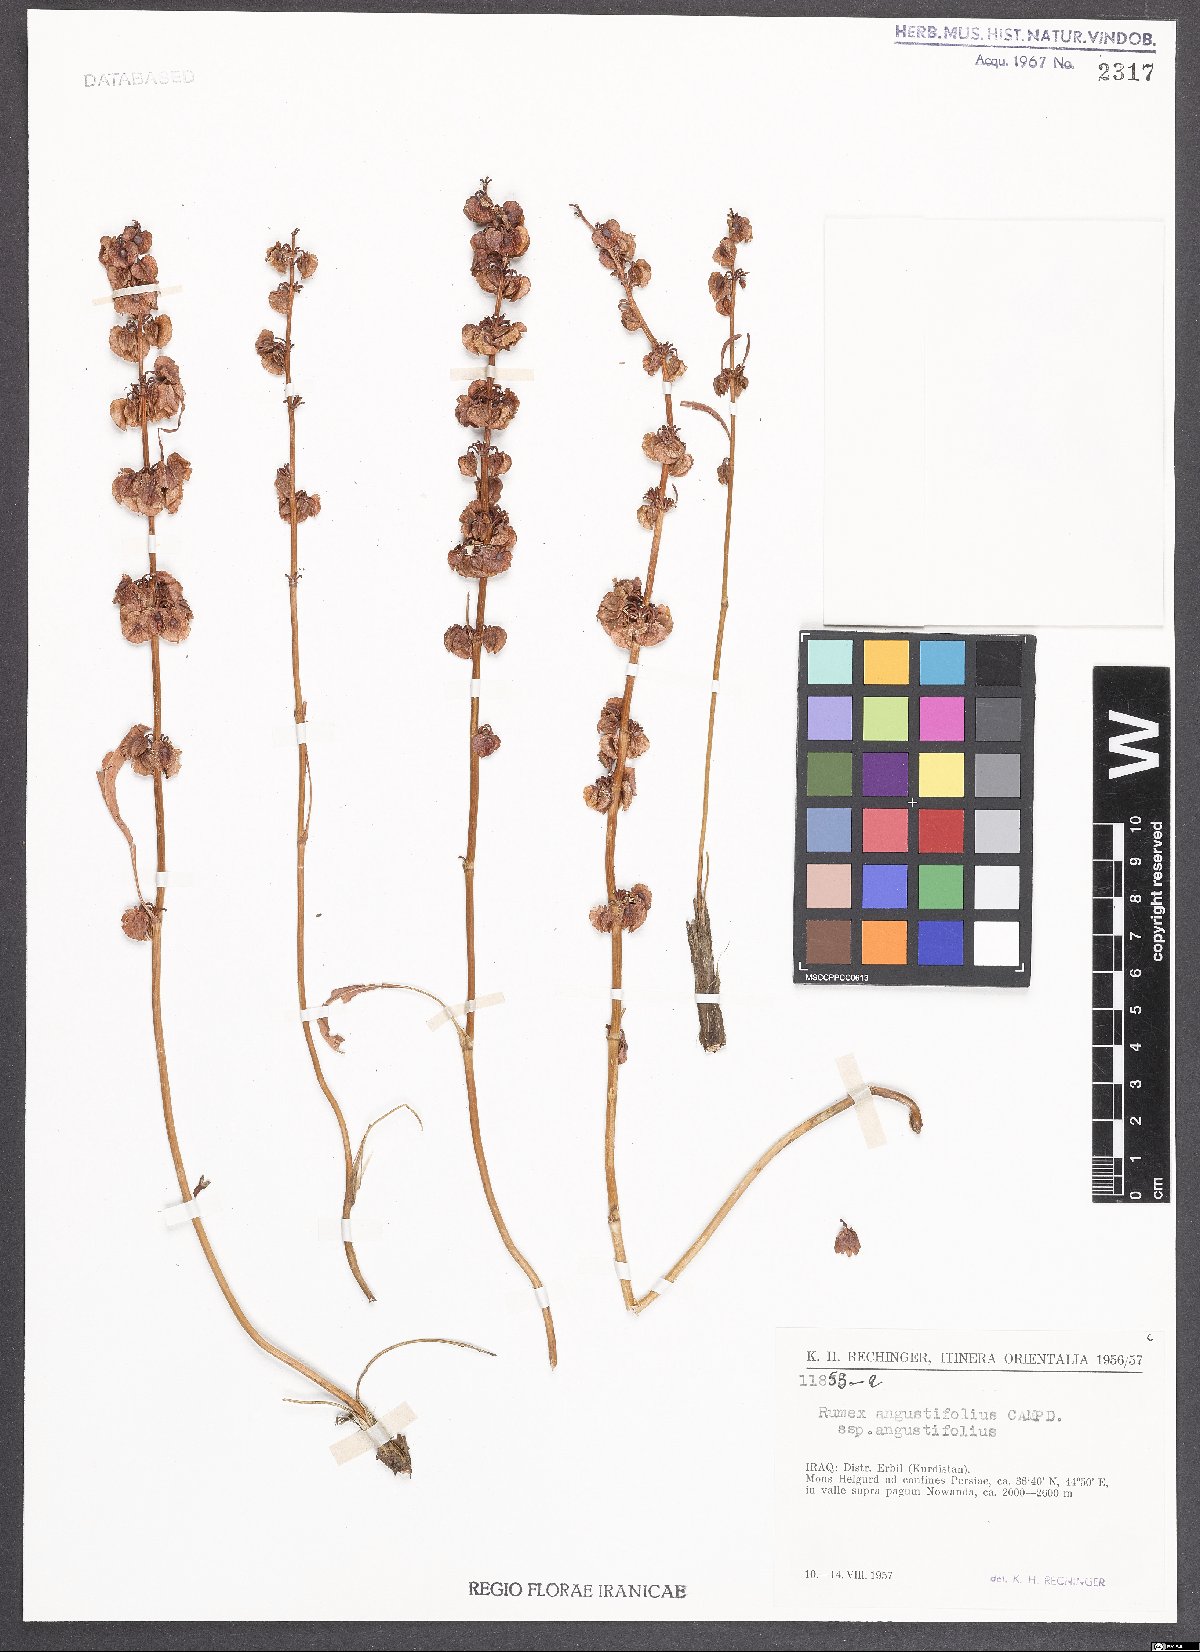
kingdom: Plantae
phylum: Tracheophyta
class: Magnoliopsida
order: Caryophyllales
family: Polygonaceae
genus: Rumex
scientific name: Rumex angustifolius
